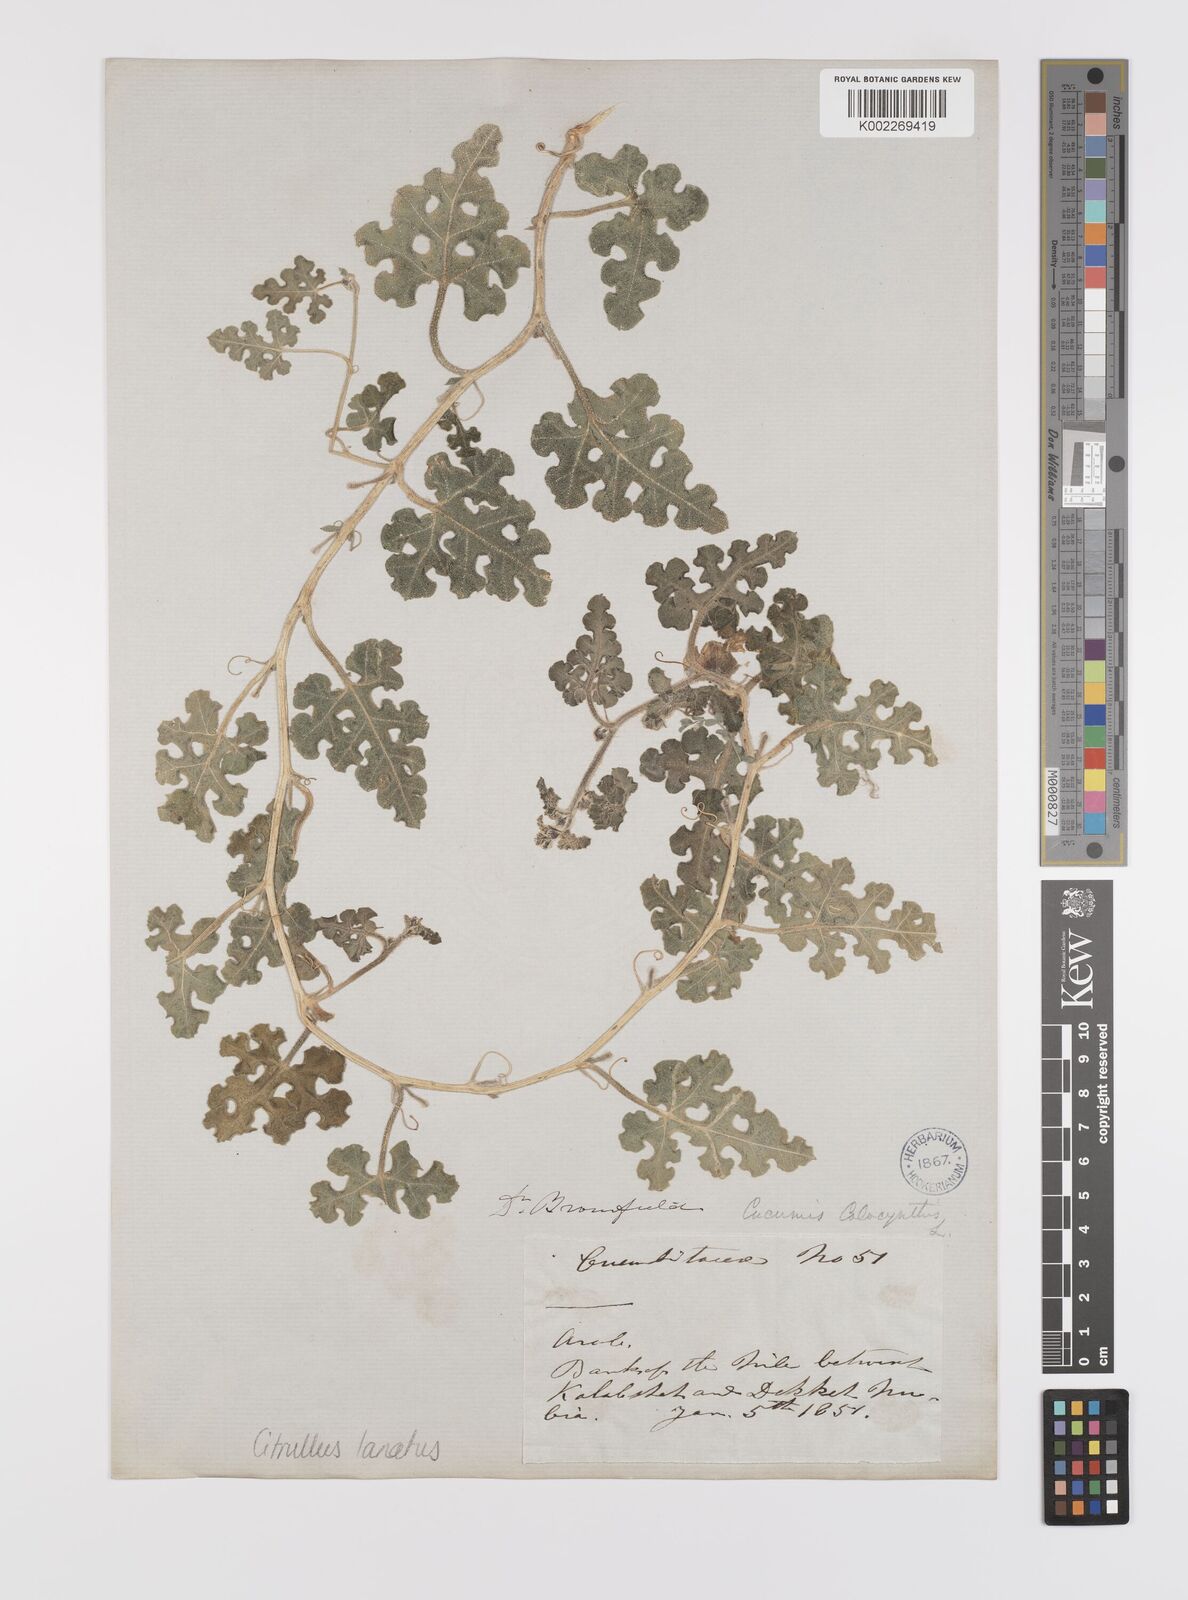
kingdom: Plantae
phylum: Tracheophyta
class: Magnoliopsida
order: Cucurbitales
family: Cucurbitaceae
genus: Citrullus
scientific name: Citrullus lanatus
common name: Watermelon
